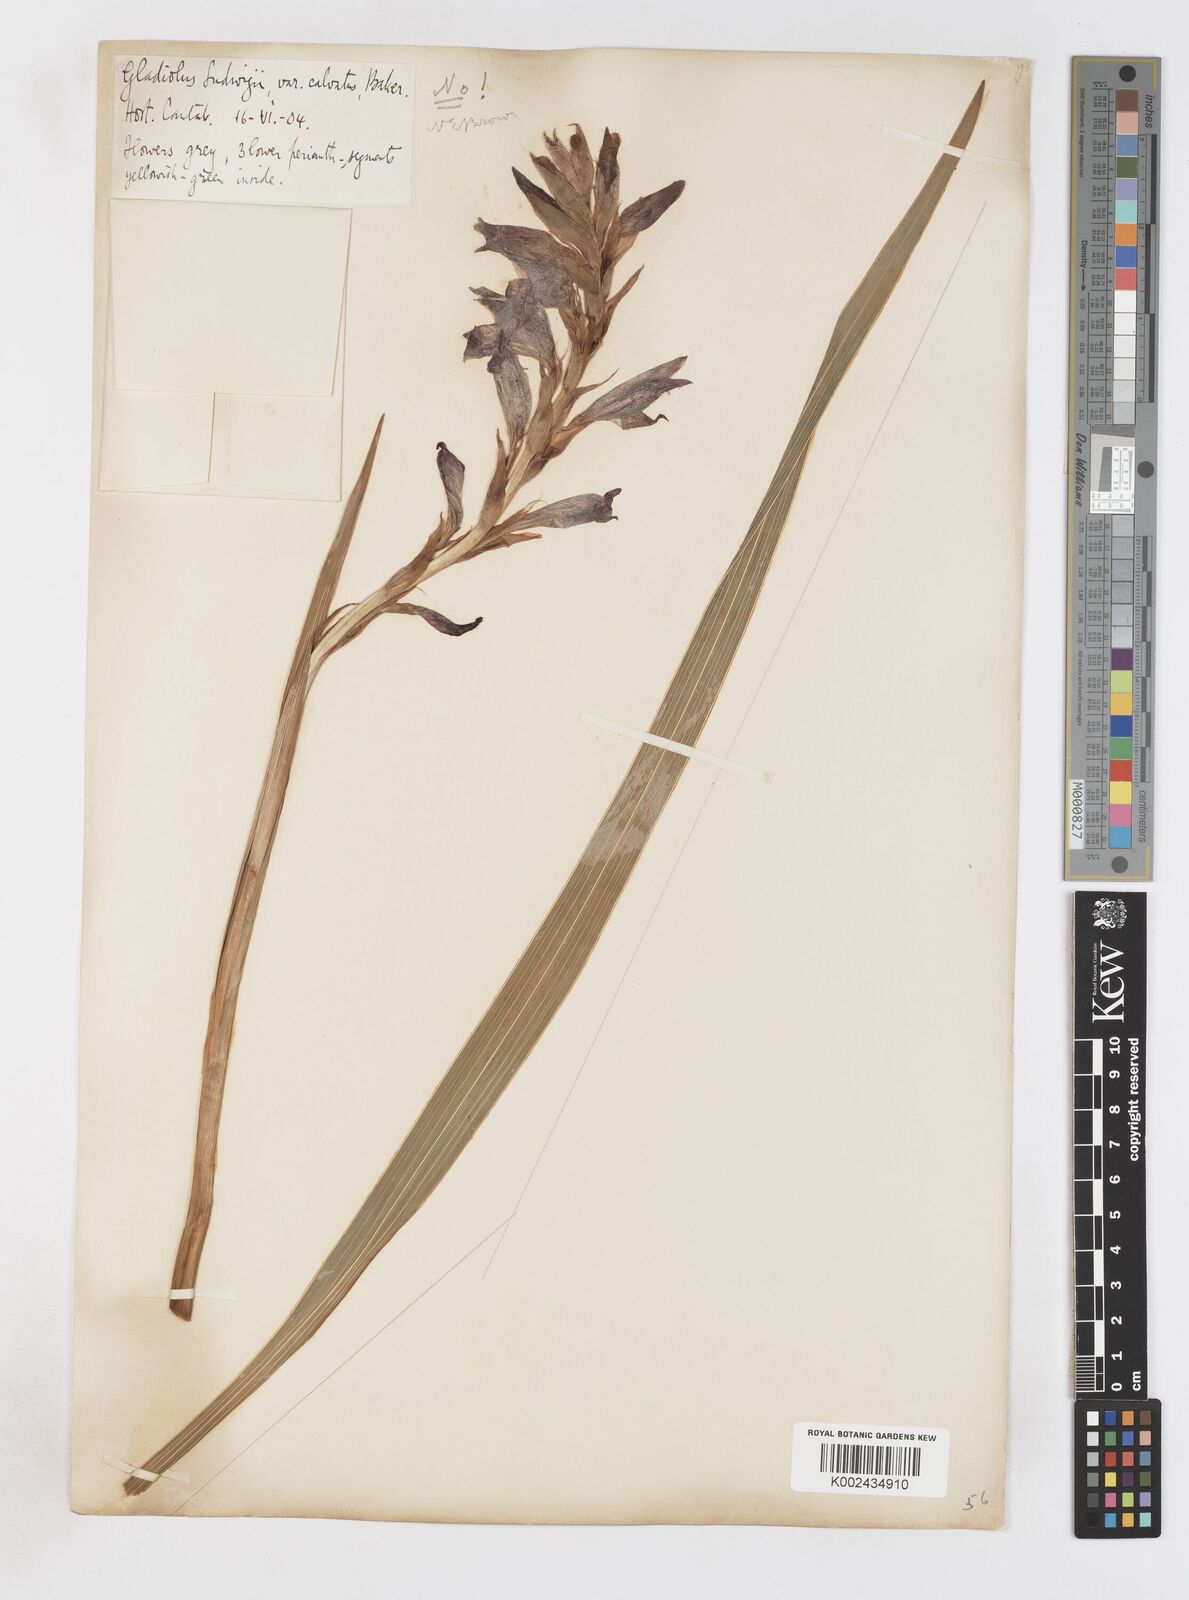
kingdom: Plantae
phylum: Tracheophyta
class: Liliopsida
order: Asparagales
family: Iridaceae
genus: Gladiolus
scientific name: Gladiolus elliotii
